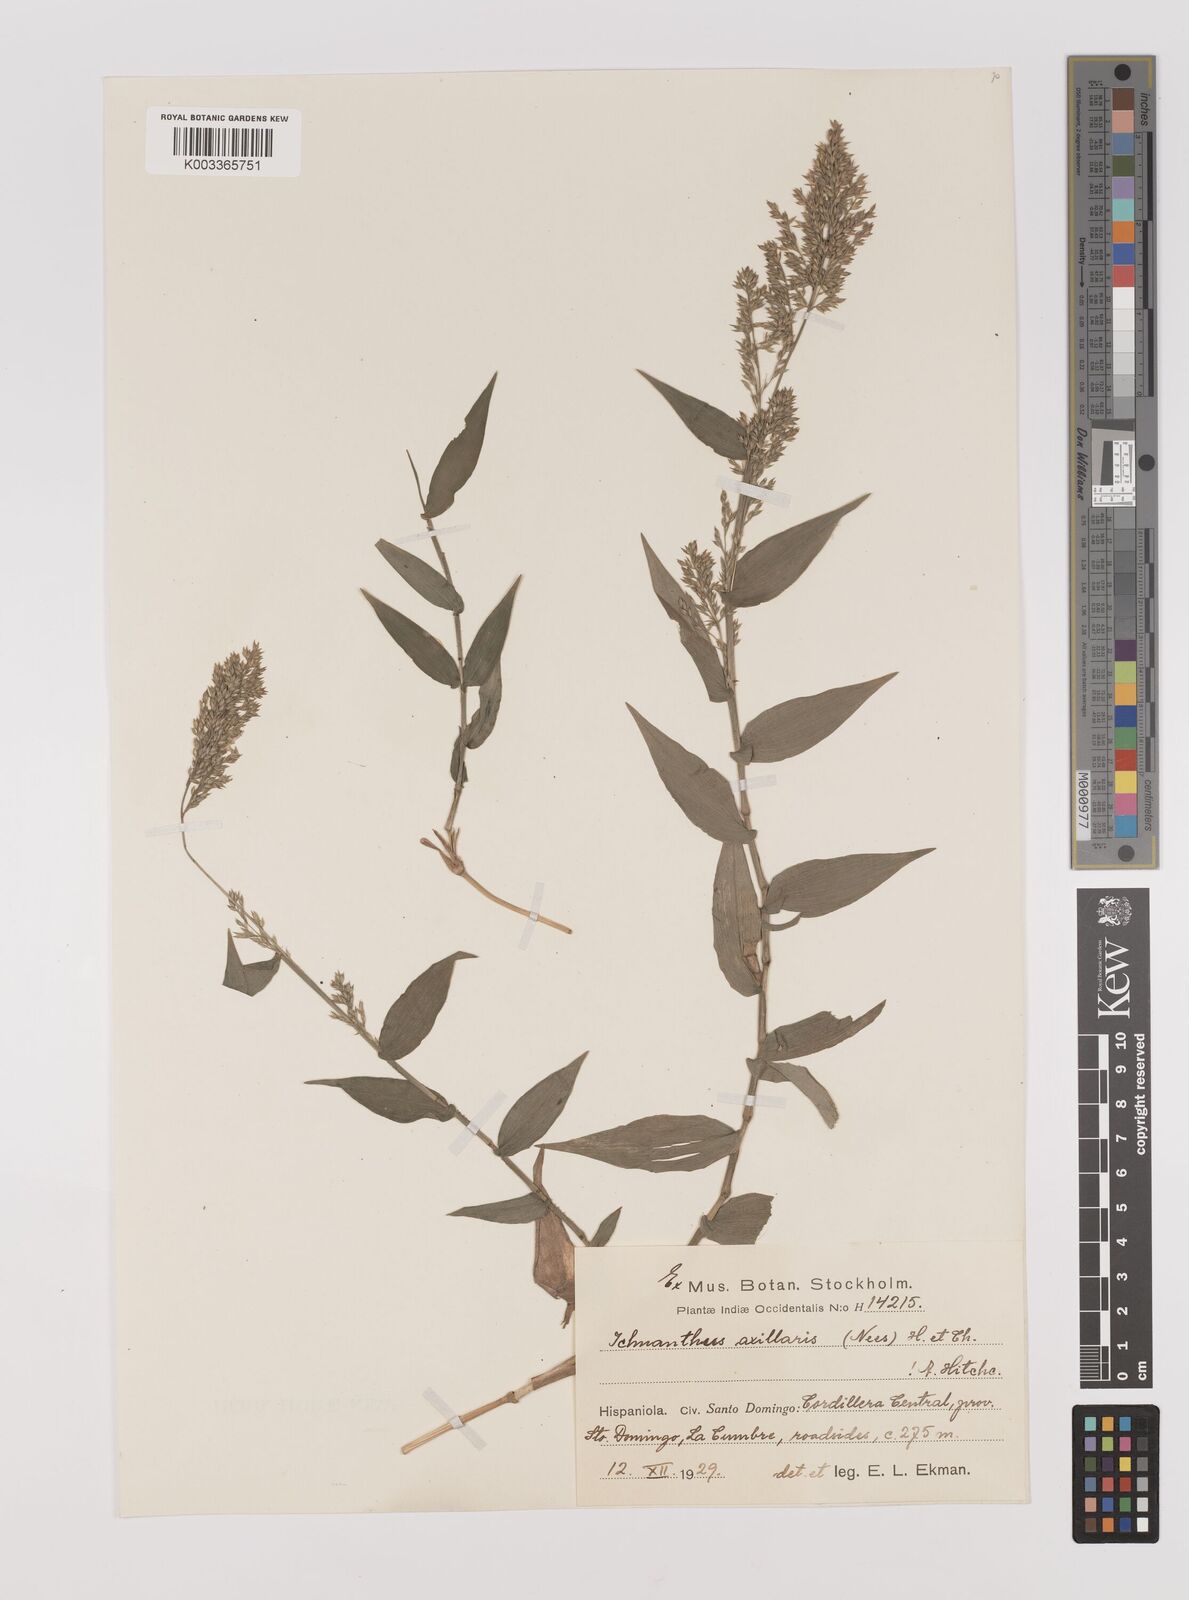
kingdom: Plantae
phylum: Tracheophyta
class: Liliopsida
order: Poales
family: Poaceae
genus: Ichnanthus
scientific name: Ichnanthus pallens
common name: Water grass
